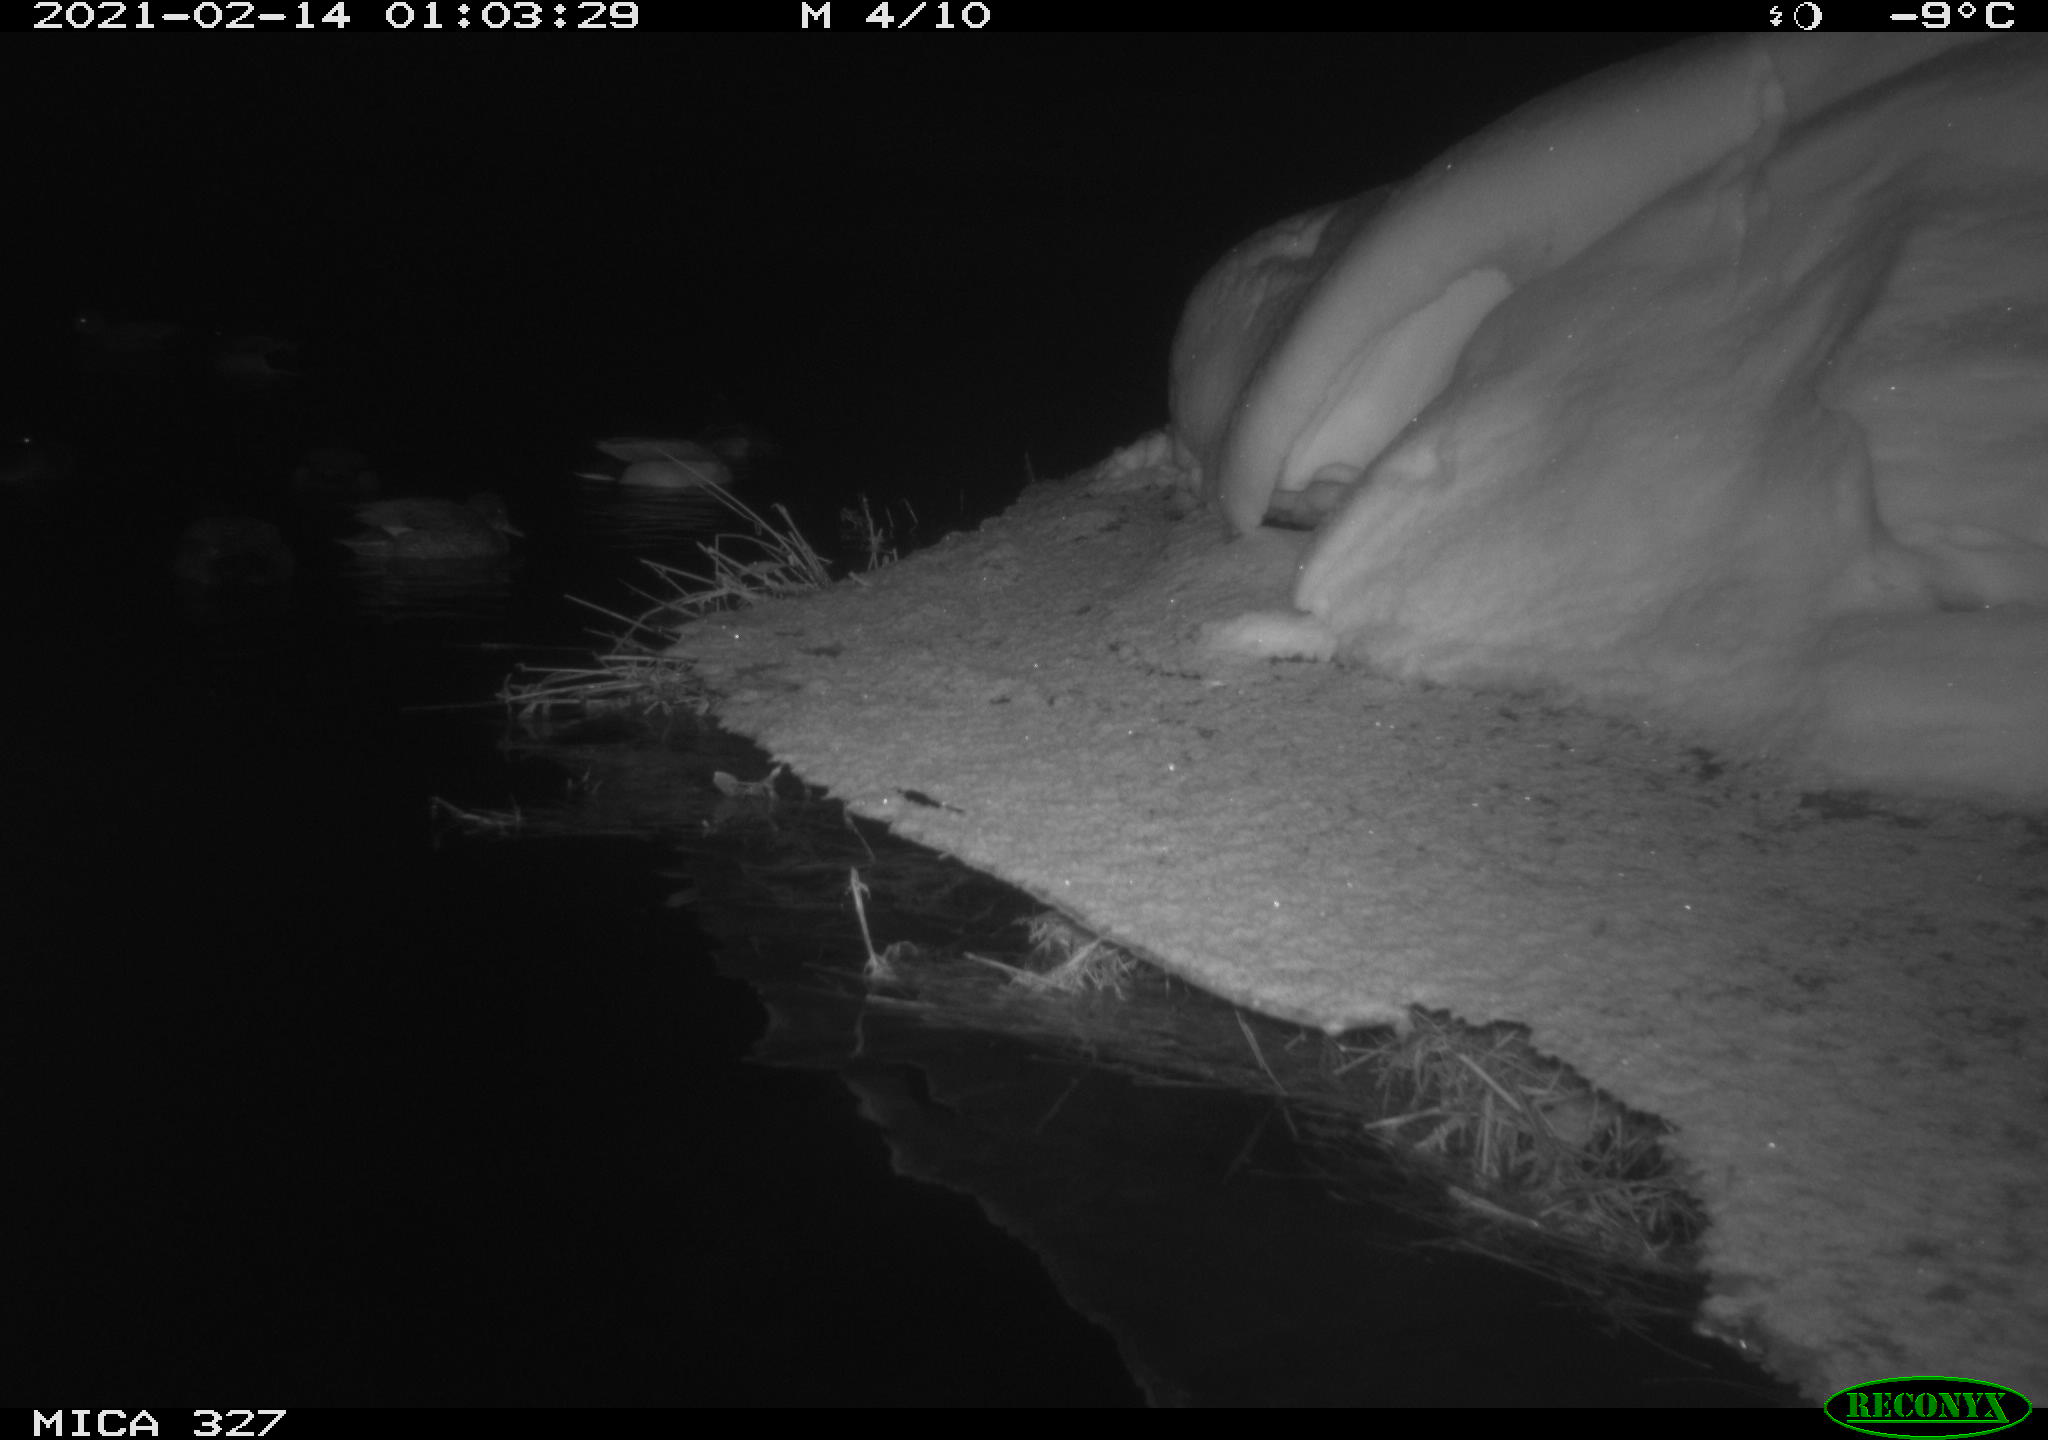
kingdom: Animalia
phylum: Chordata
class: Aves
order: Anseriformes
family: Anatidae
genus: Anas
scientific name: Anas
